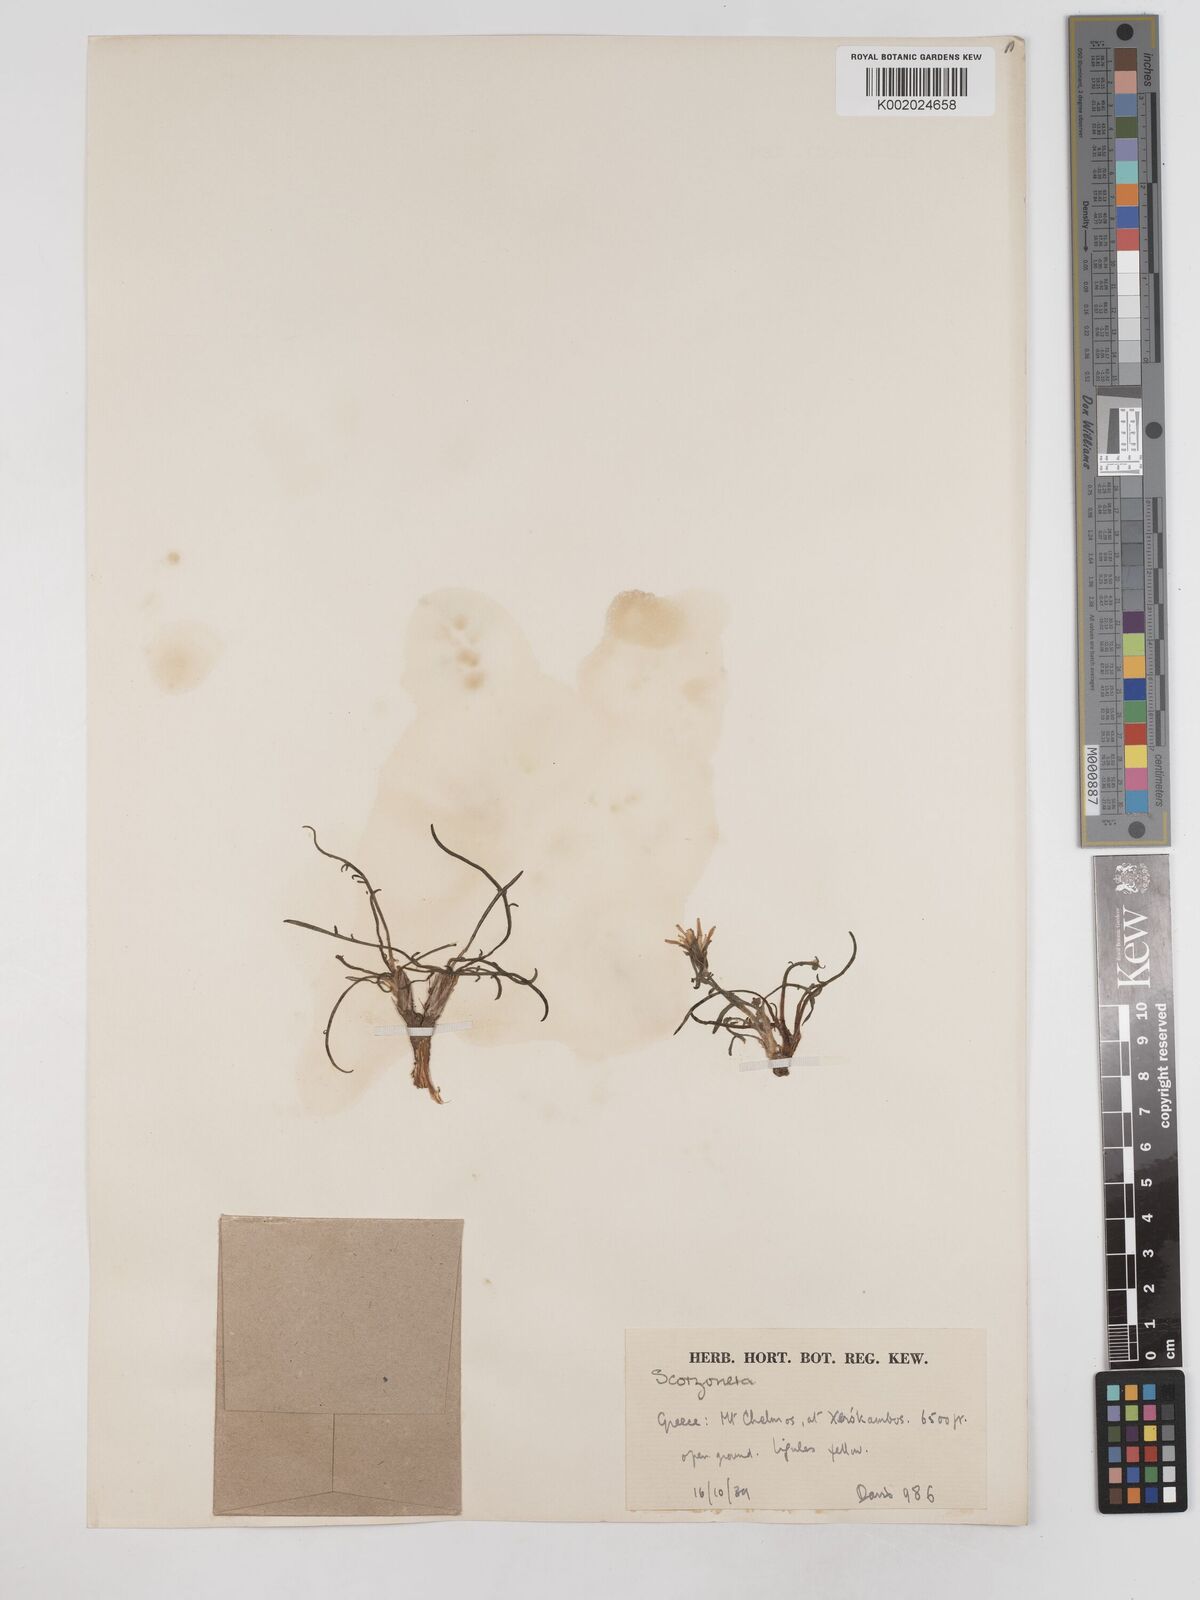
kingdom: Plantae
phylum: Tracheophyta
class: Magnoliopsida
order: Asterales
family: Asteraceae
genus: Scorzonera
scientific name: Scorzonera cana
